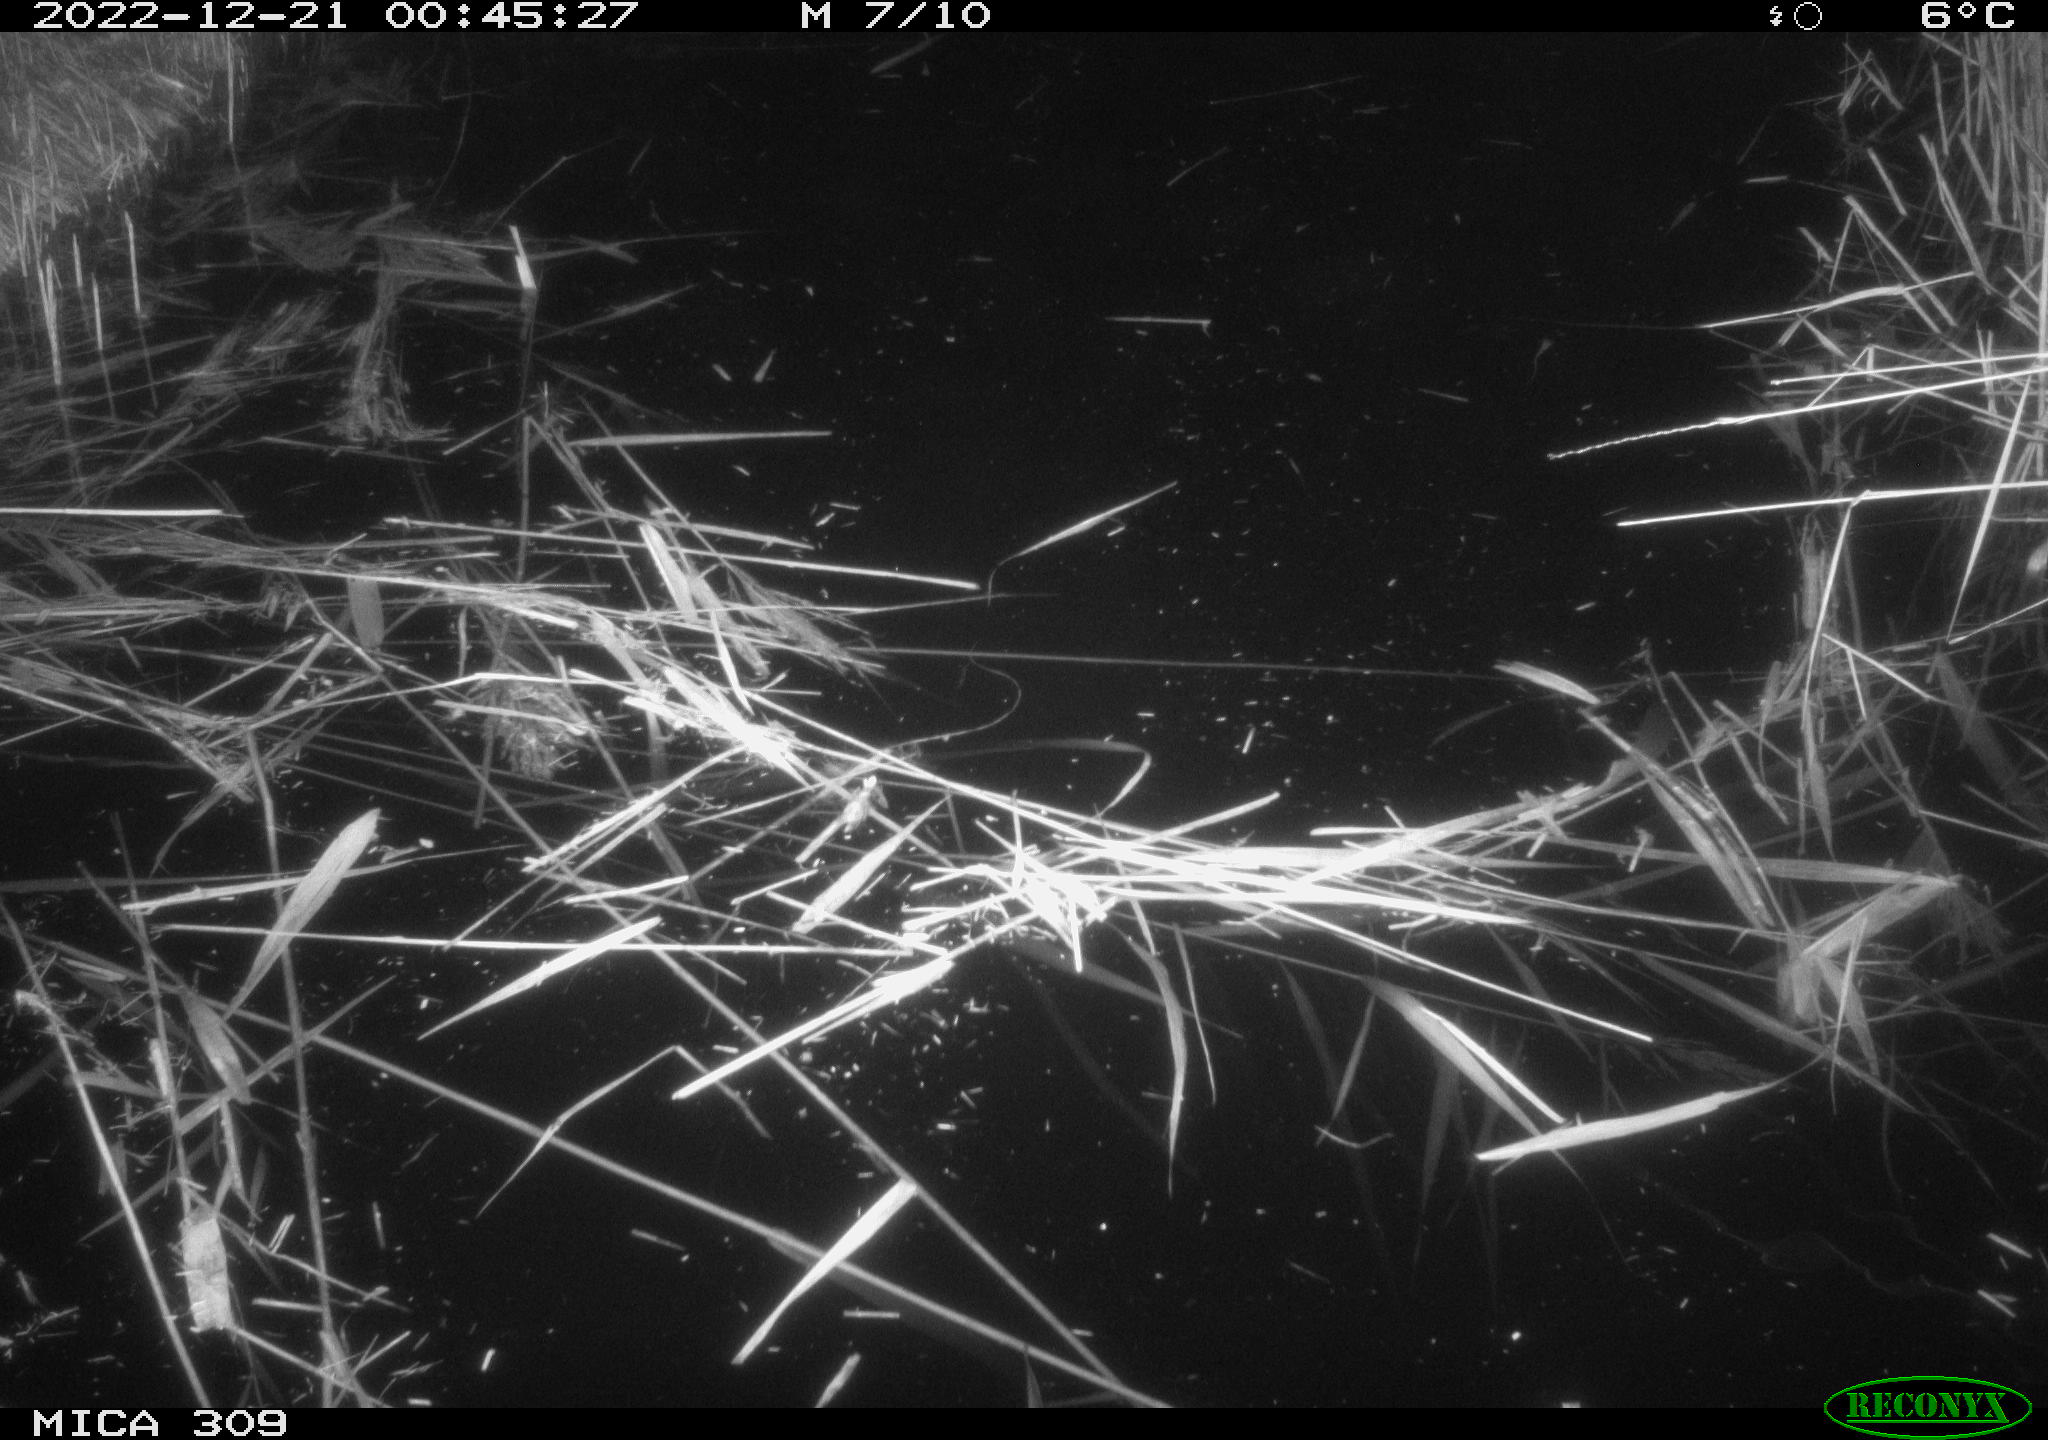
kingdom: Animalia
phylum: Chordata
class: Mammalia
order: Rodentia
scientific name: Rodentia
